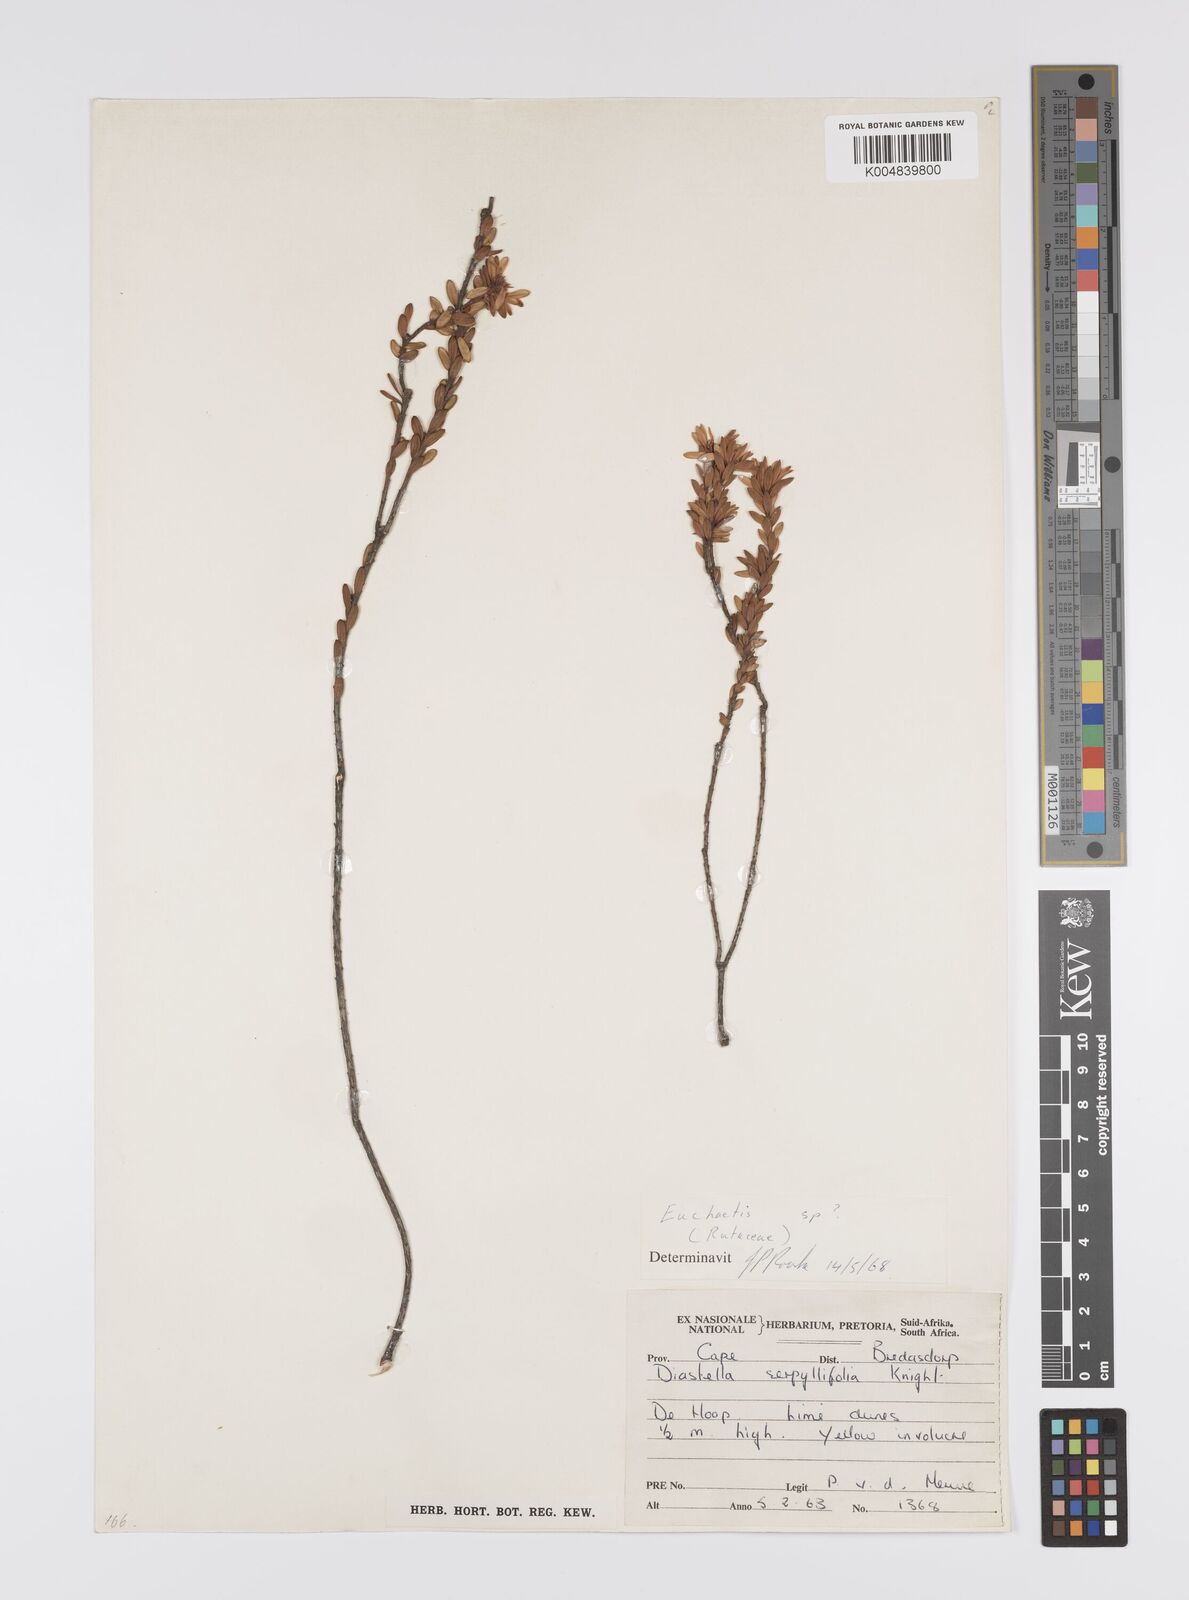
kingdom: Plantae
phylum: Tracheophyta
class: Magnoliopsida
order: Sapindales
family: Rutaceae
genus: Euchaetis
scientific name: Euchaetis scabricosta
